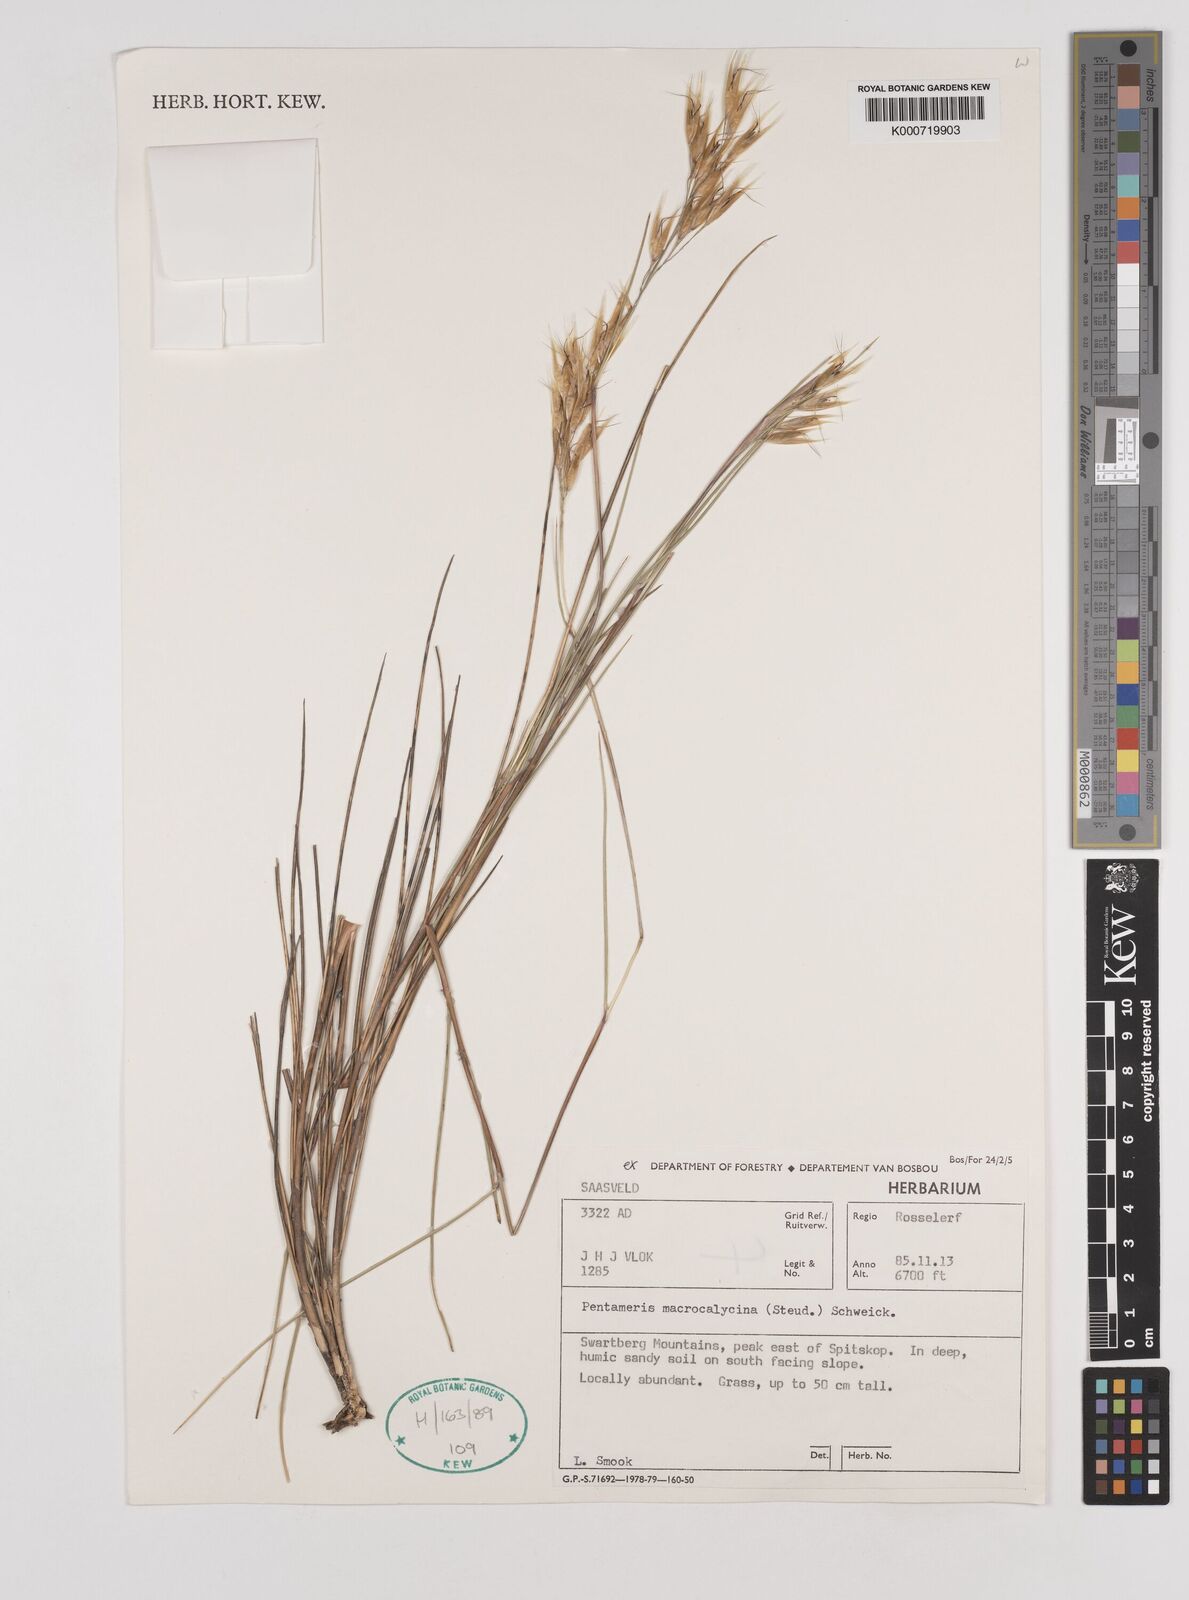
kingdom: Plantae
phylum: Tracheophyta
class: Liliopsida
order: Poales
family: Poaceae
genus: Pentameris
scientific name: Pentameris macrocalycina
